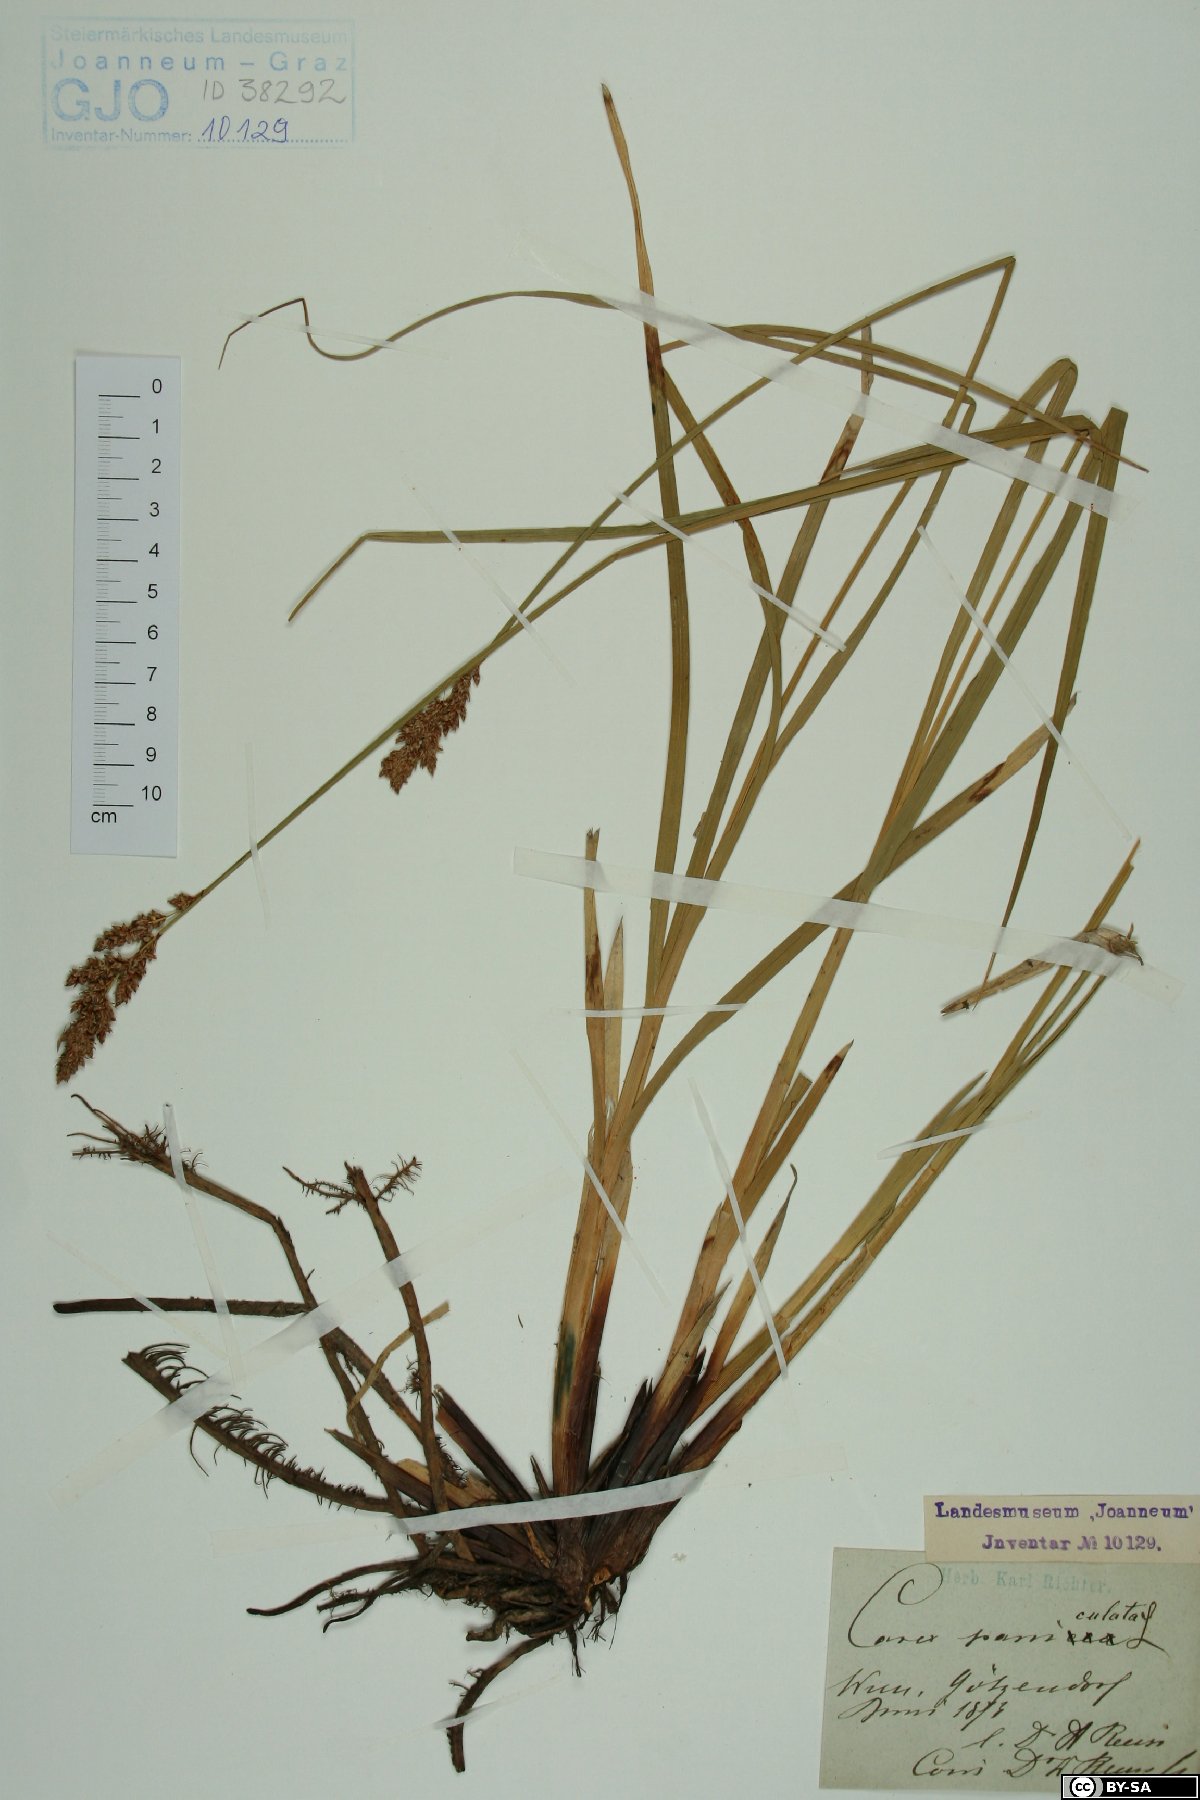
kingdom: Plantae
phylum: Tracheophyta
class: Liliopsida
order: Poales
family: Cyperaceae
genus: Carex
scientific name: Carex paniculata
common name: Greater tussock-sedge
